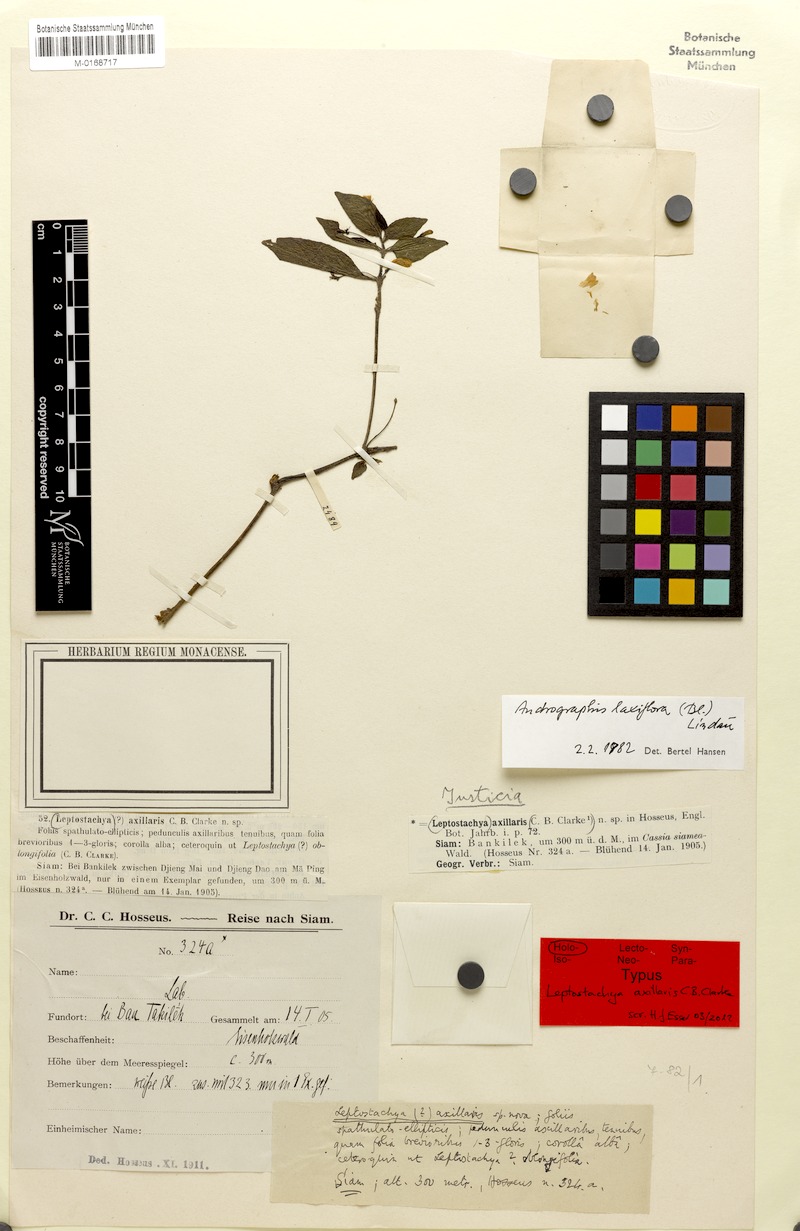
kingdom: Plantae
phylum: Tracheophyta
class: Magnoliopsida
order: Lamiales
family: Acanthaceae
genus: Haplanthus
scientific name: Haplanthus laxiflorus
